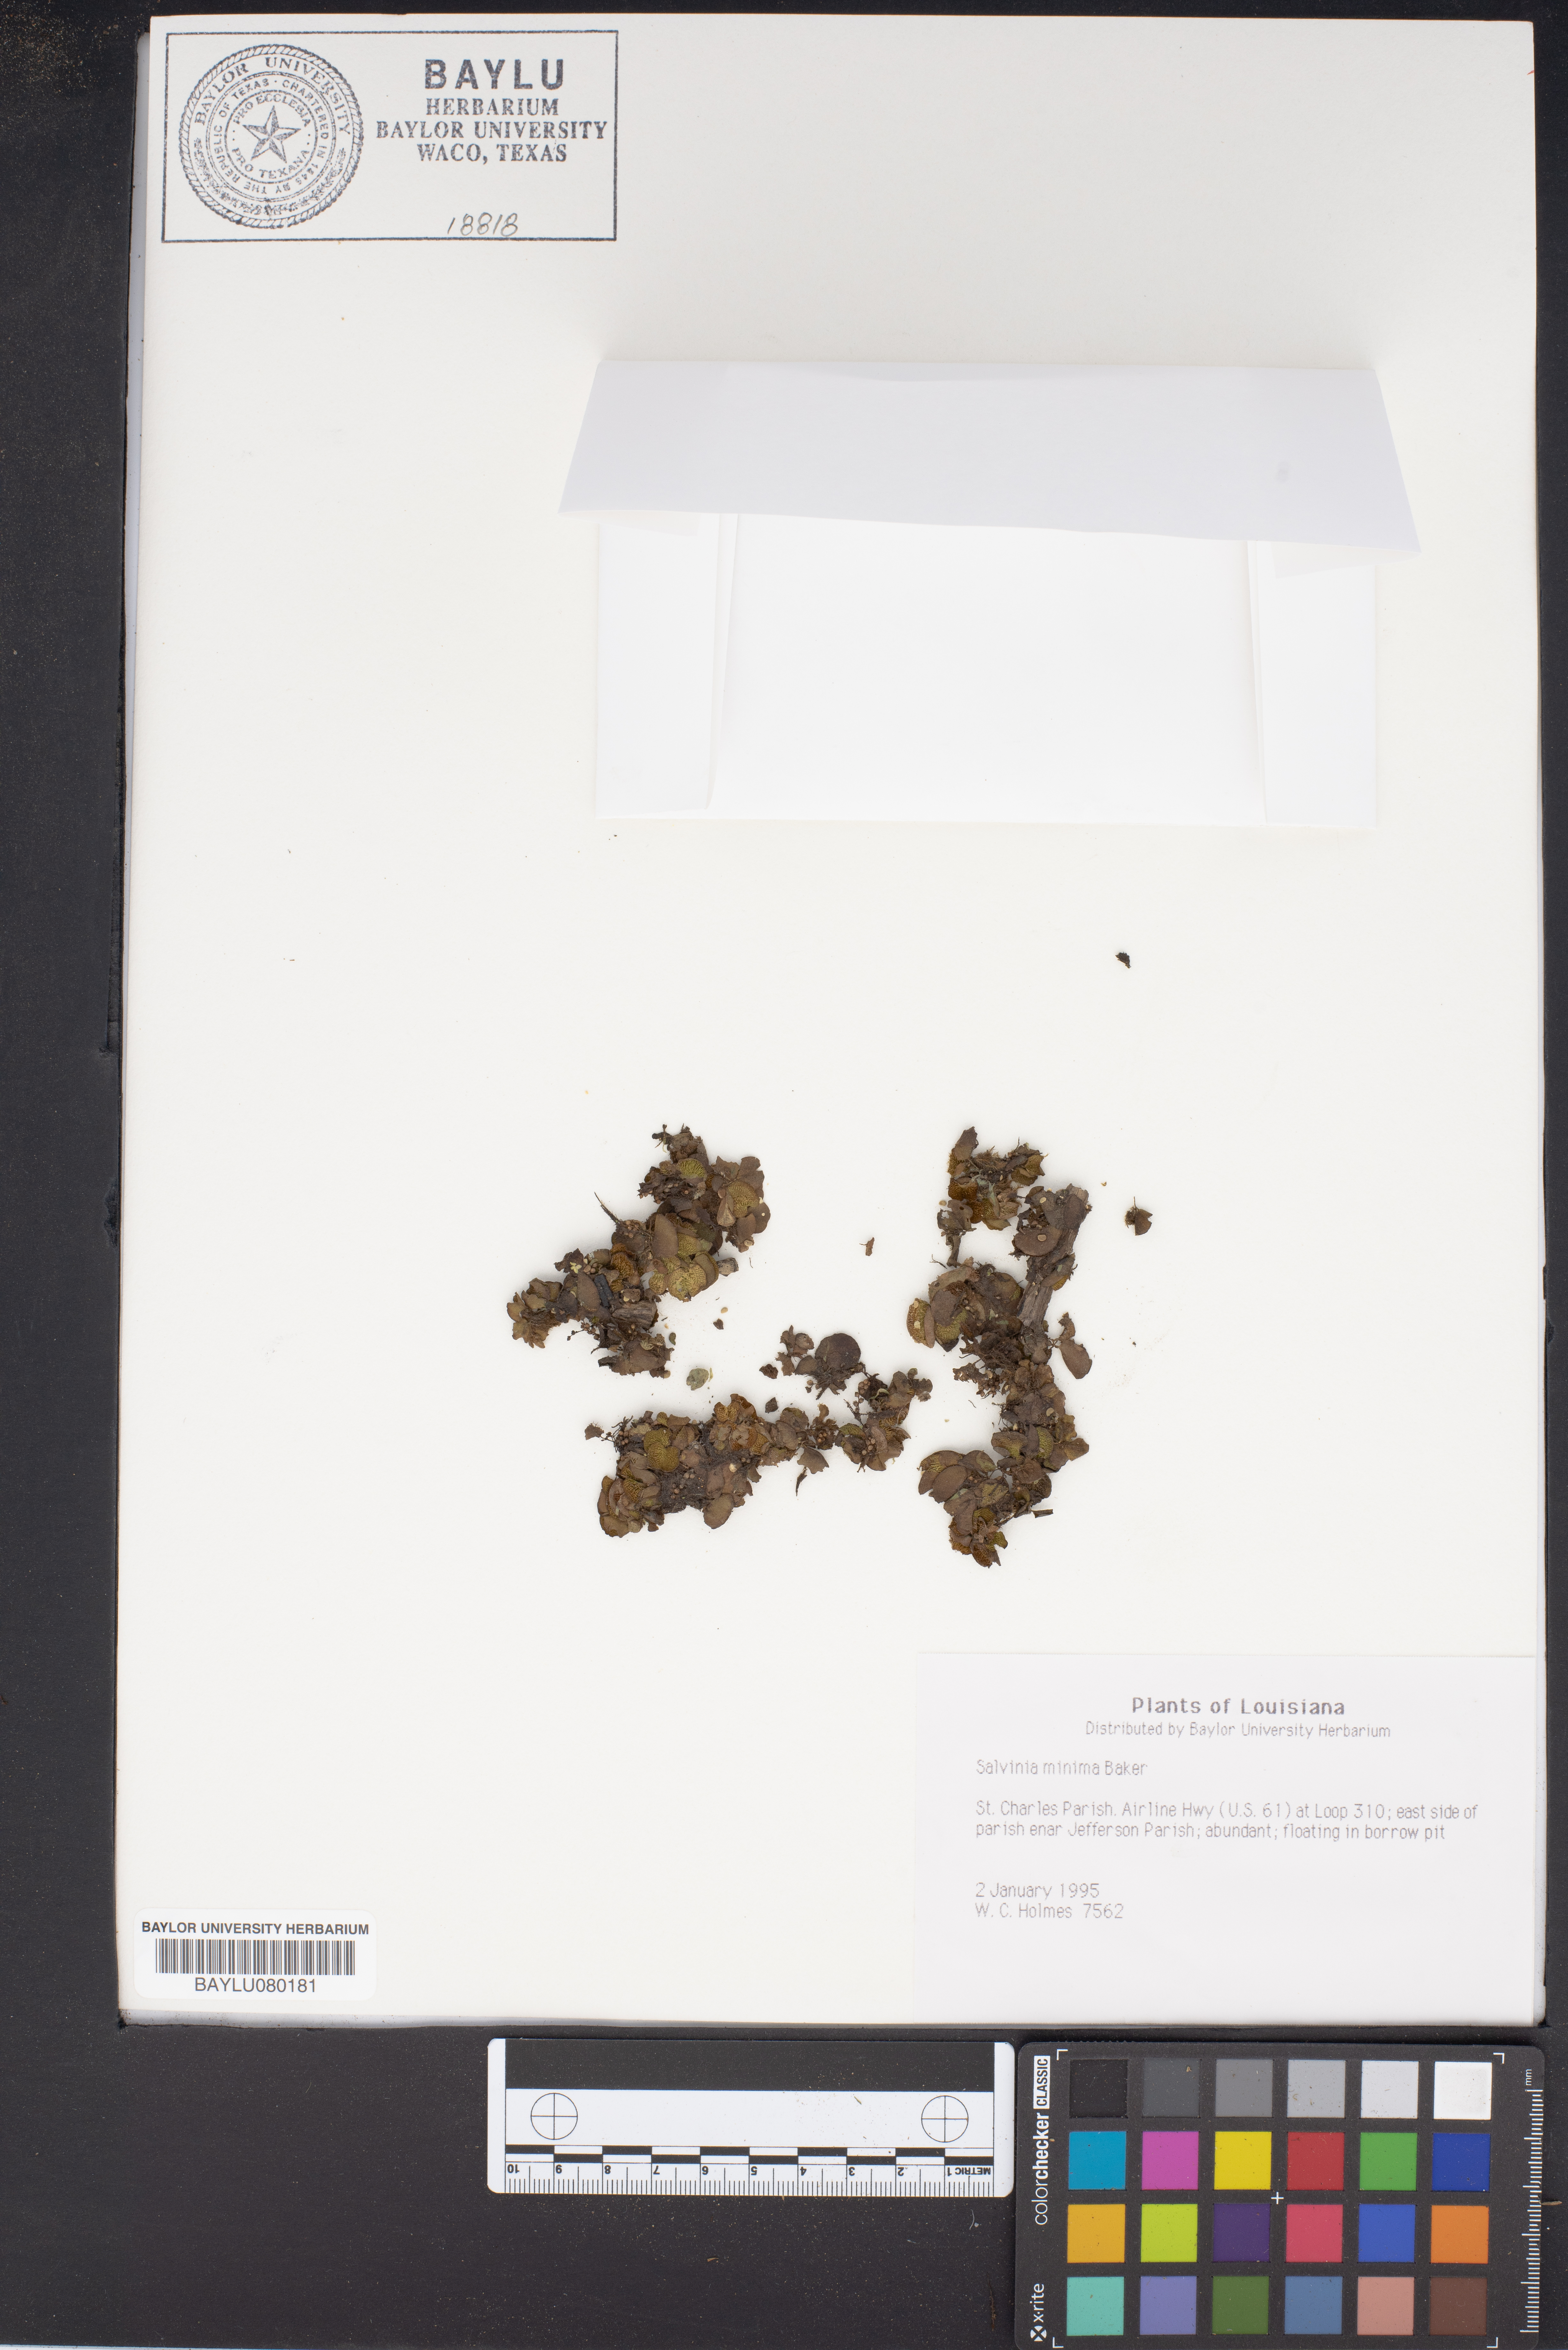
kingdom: Plantae
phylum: Tracheophyta
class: Polypodiopsida
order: Salviniales
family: Salviniaceae
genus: Salvinia
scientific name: Salvinia minima
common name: Water spangles
